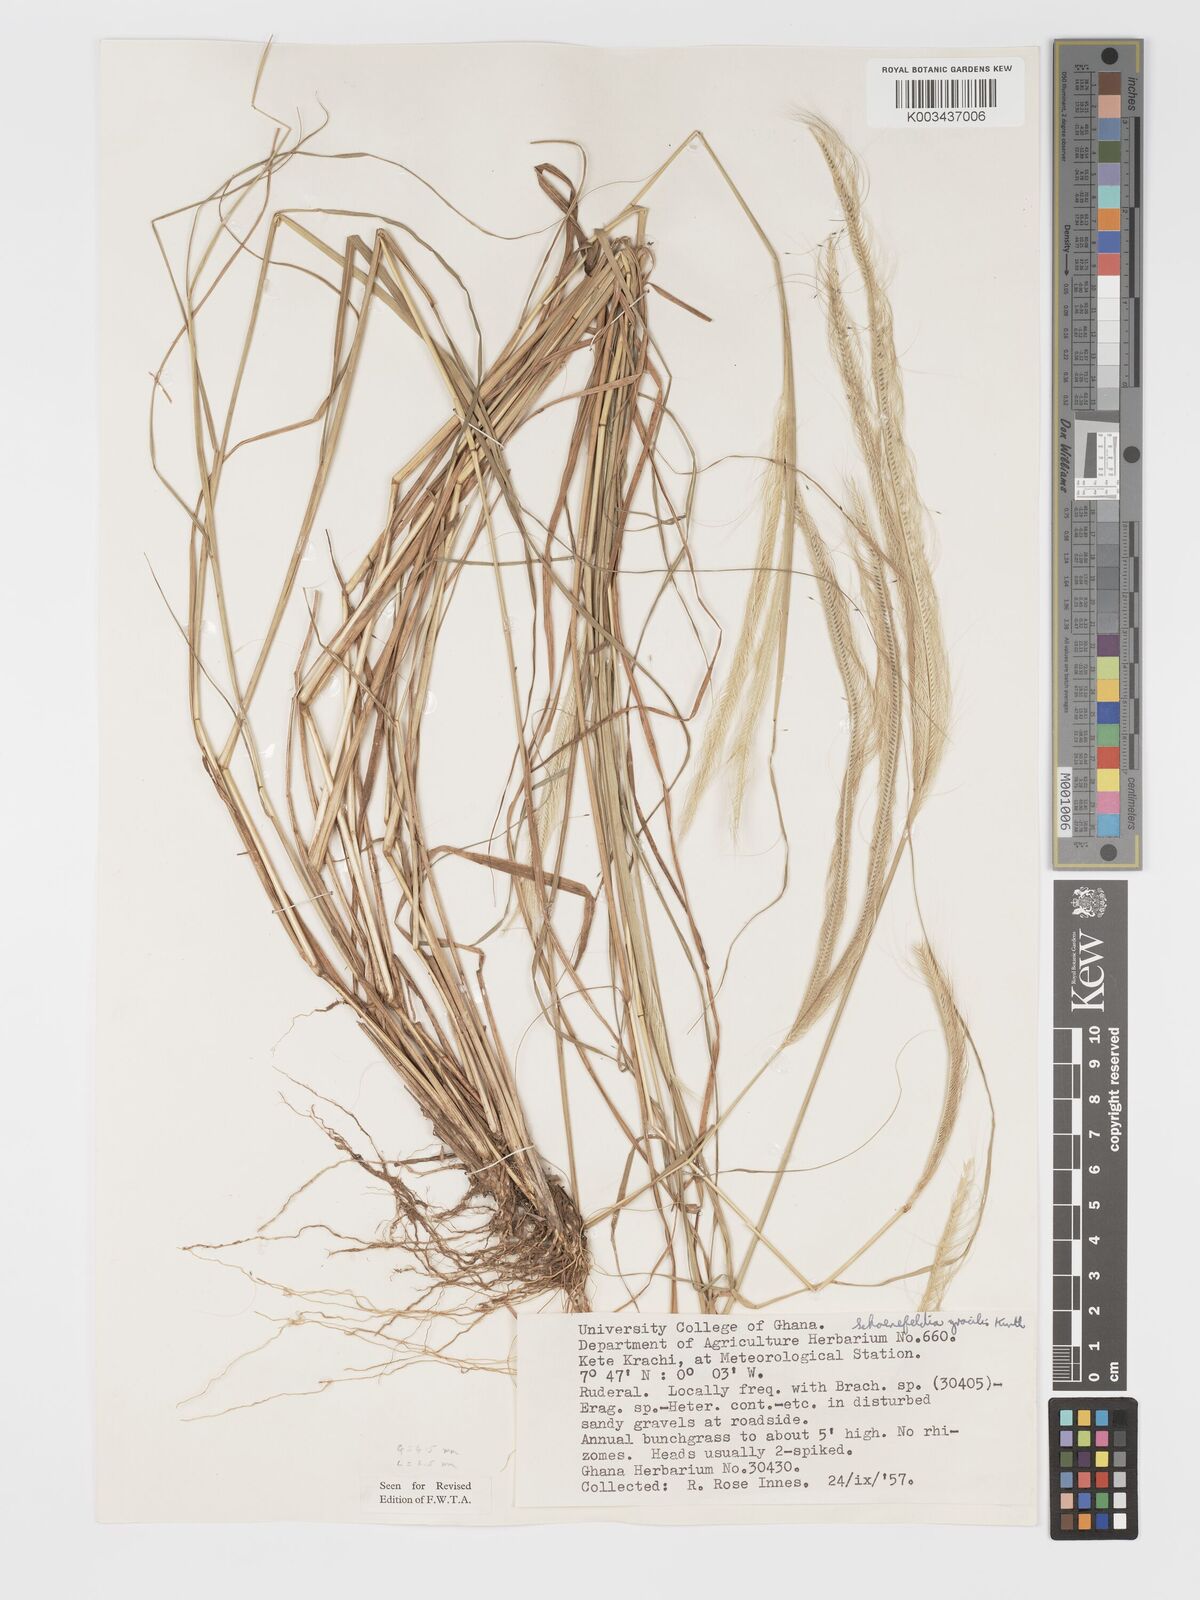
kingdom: Plantae
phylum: Tracheophyta
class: Liliopsida
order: Poales
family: Poaceae
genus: Schoenefeldia
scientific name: Schoenefeldia gracilis
